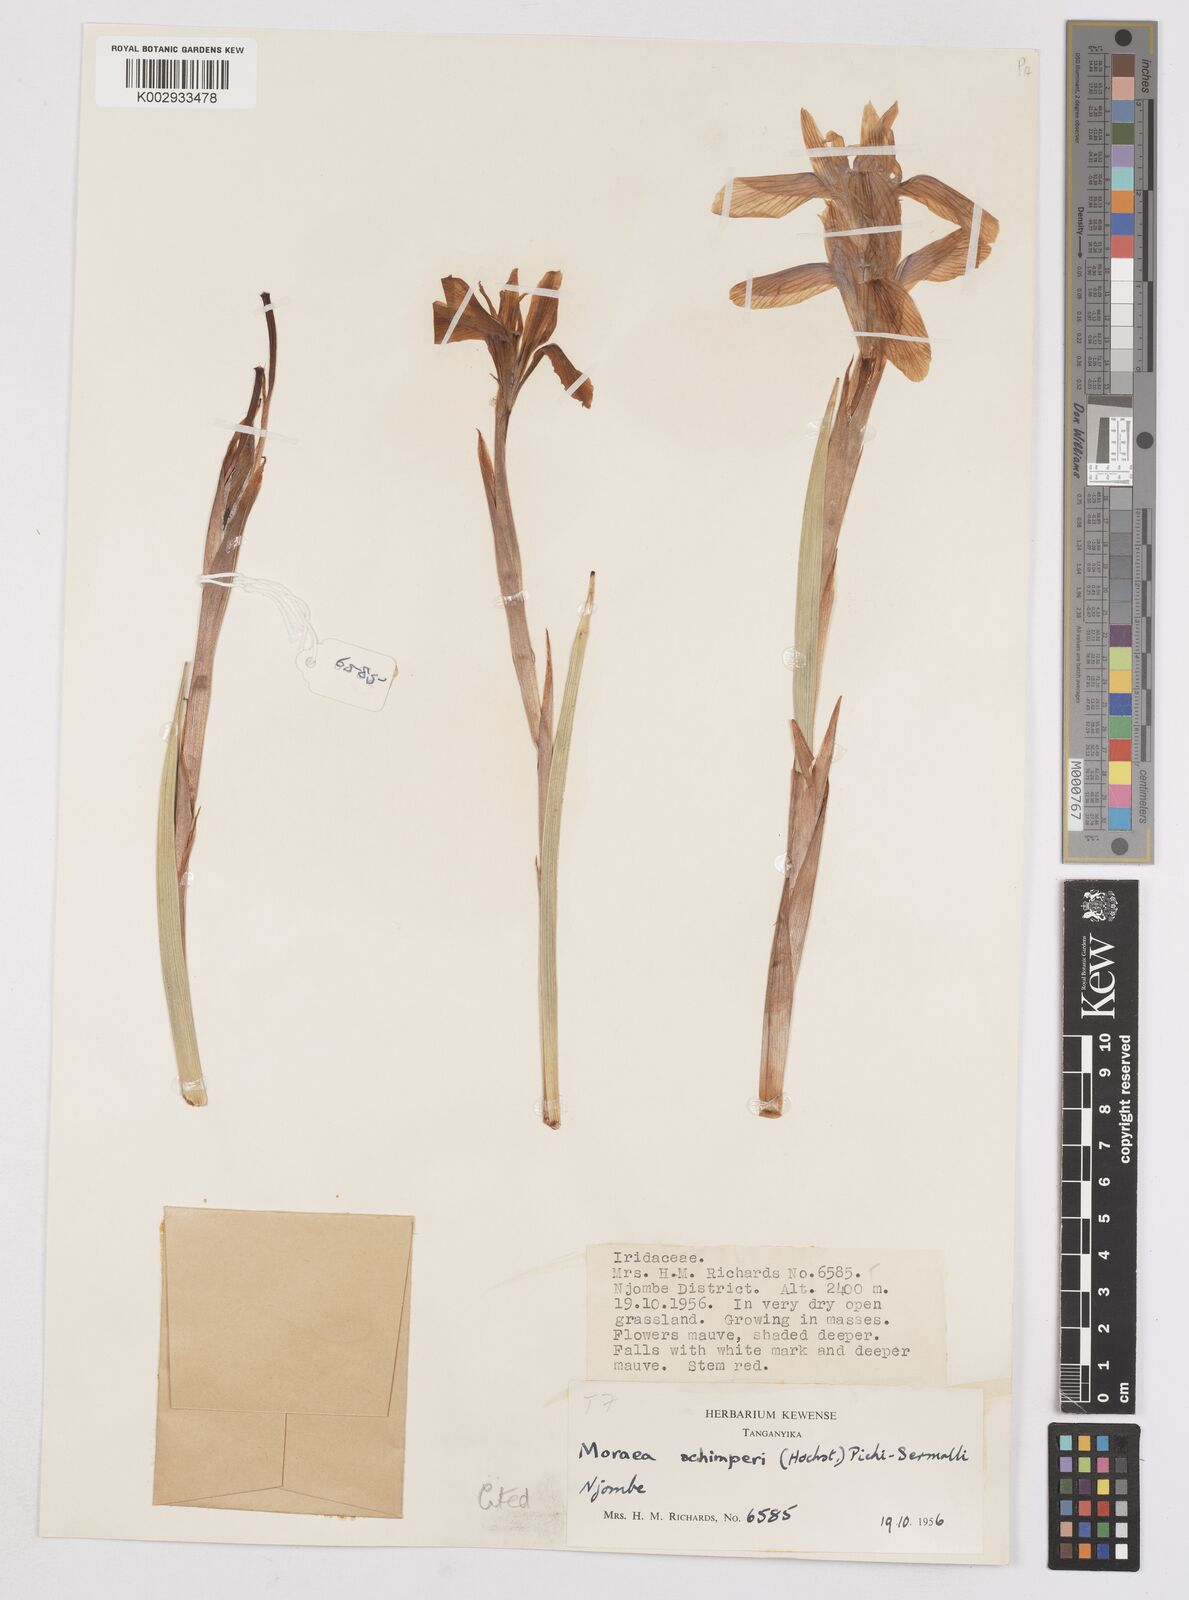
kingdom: Plantae
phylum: Tracheophyta
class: Liliopsida
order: Asparagales
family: Iridaceae
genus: Moraea
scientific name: Moraea schimperi
